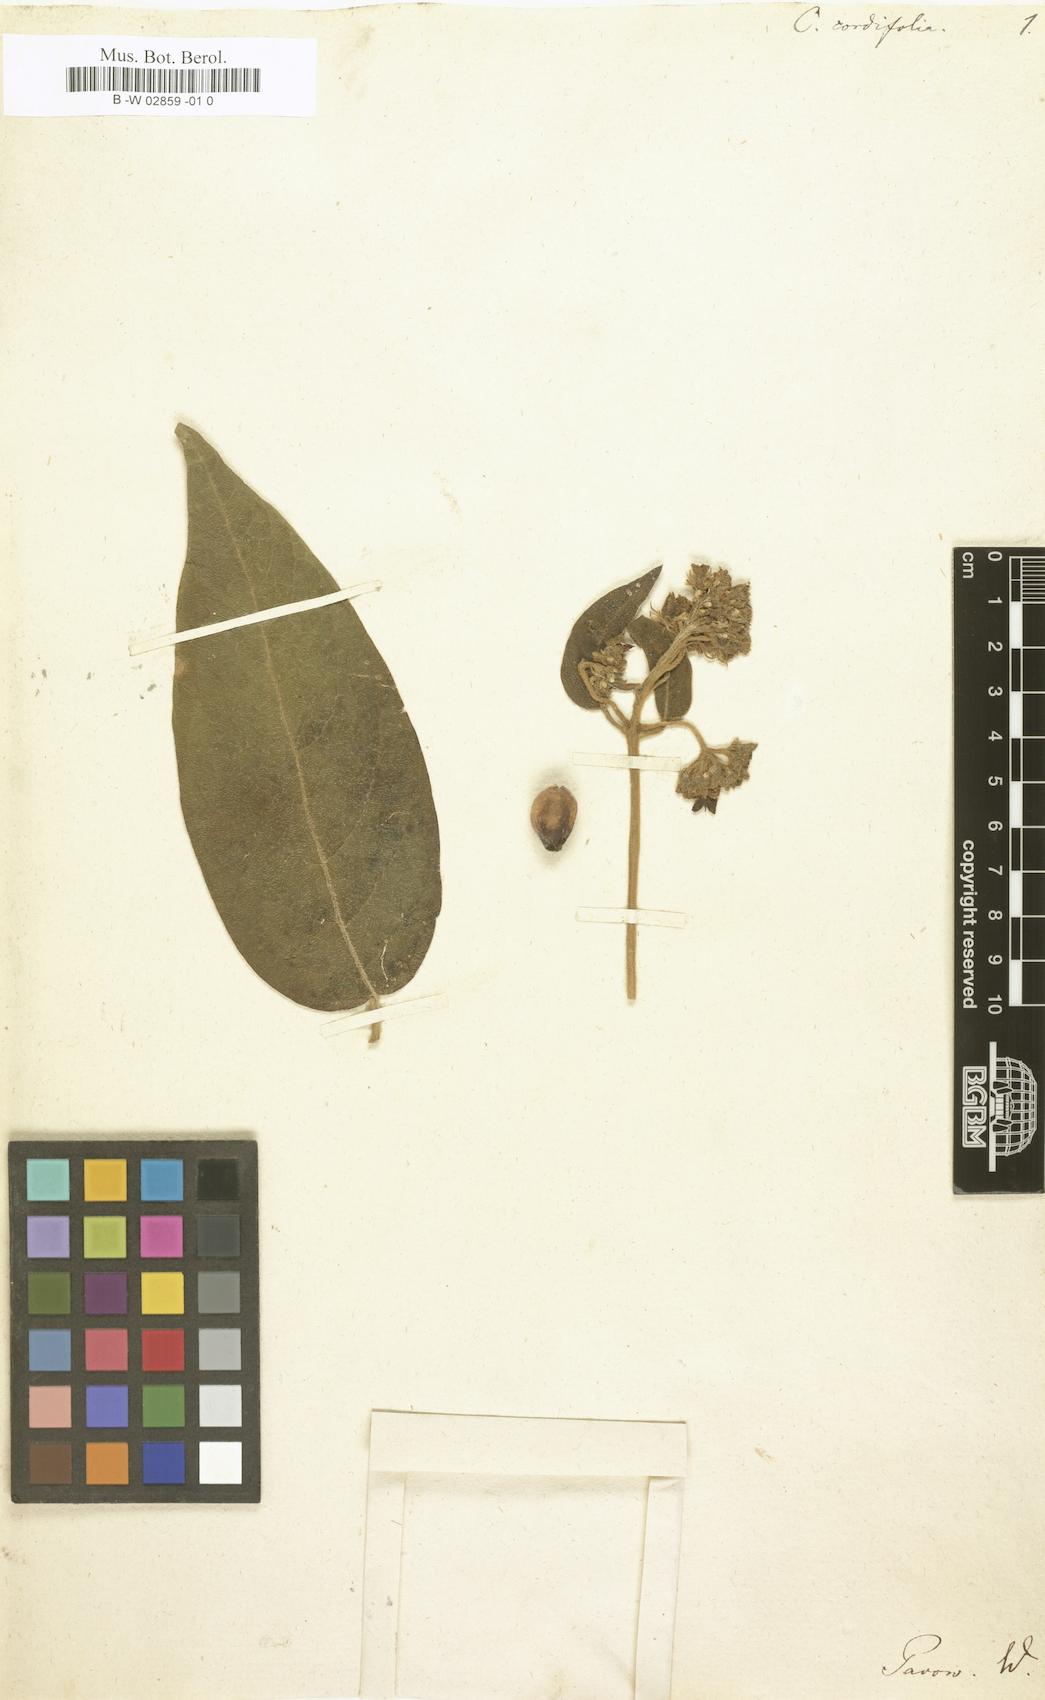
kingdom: Plantae
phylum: Tracheophyta
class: Magnoliopsida
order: Lamiales
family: Lamiaceae
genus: Aegiphila
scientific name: Aegiphila cordifolia
